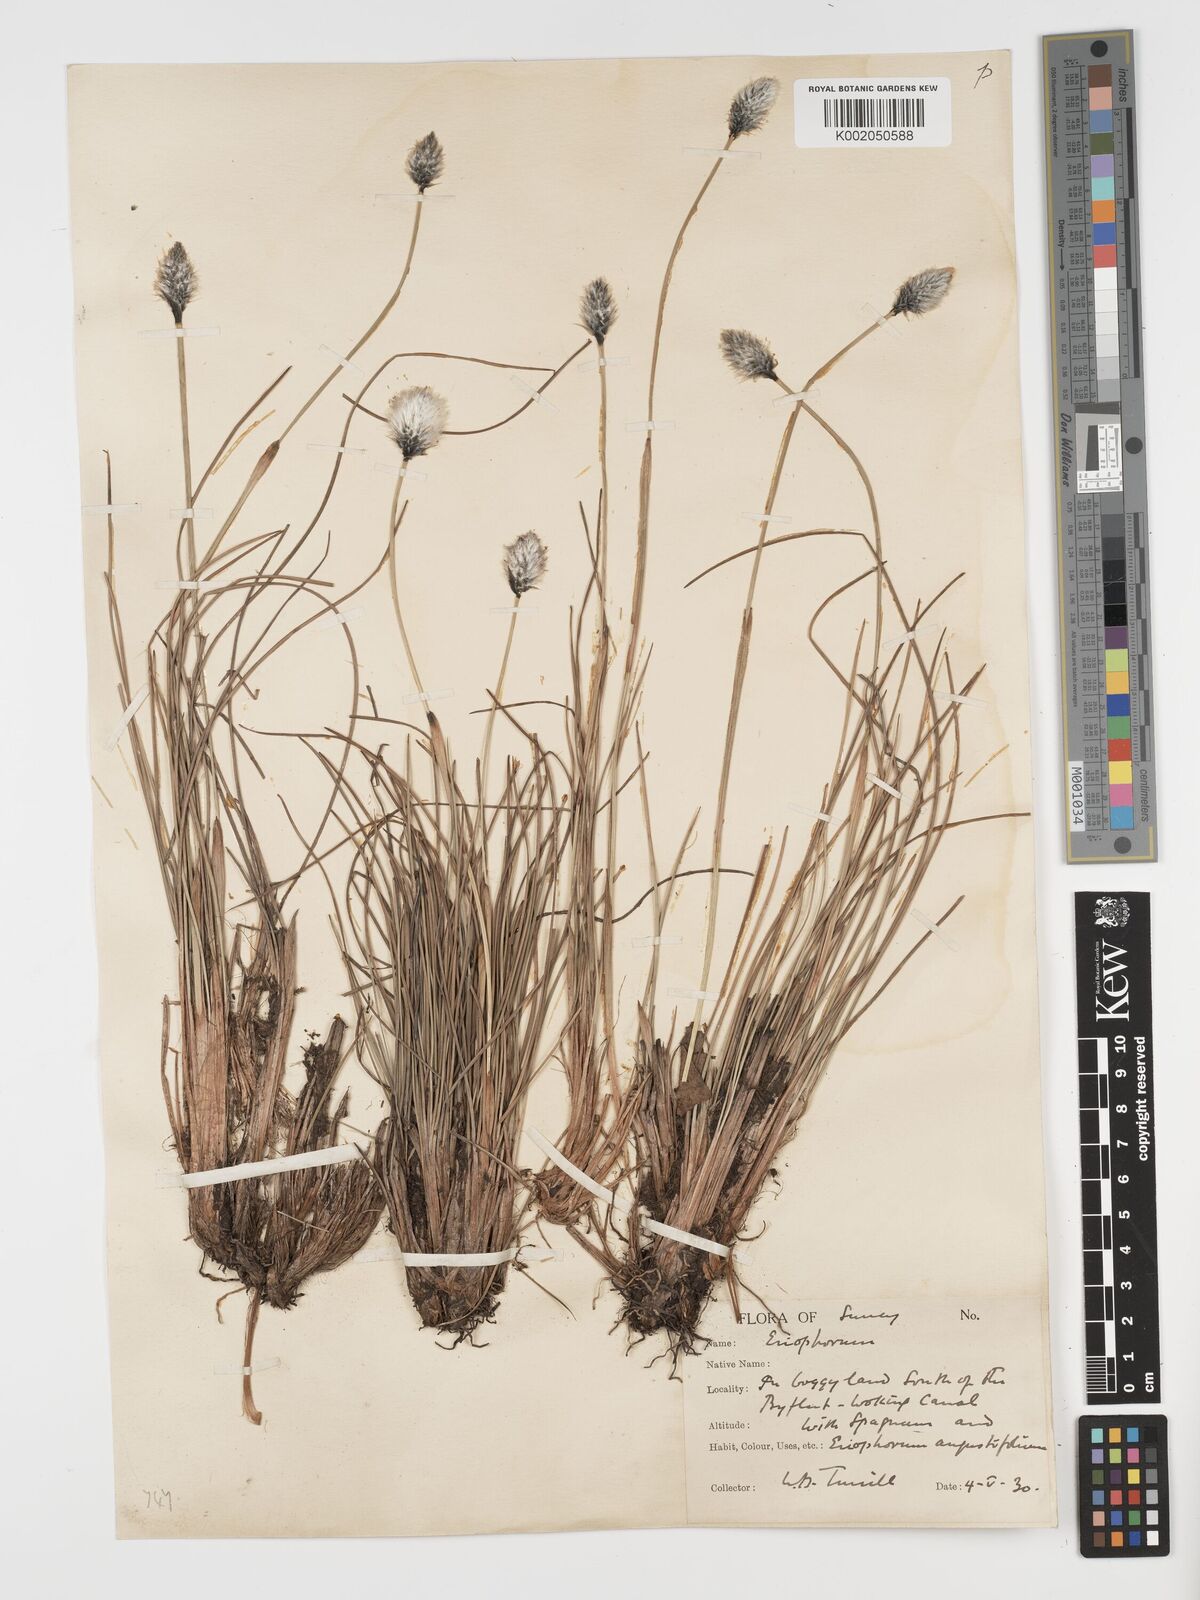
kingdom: Plantae
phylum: Tracheophyta
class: Liliopsida
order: Poales
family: Cyperaceae
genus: Eriophorum
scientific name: Eriophorum vaginatum
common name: Hare's-tail cottongrass
